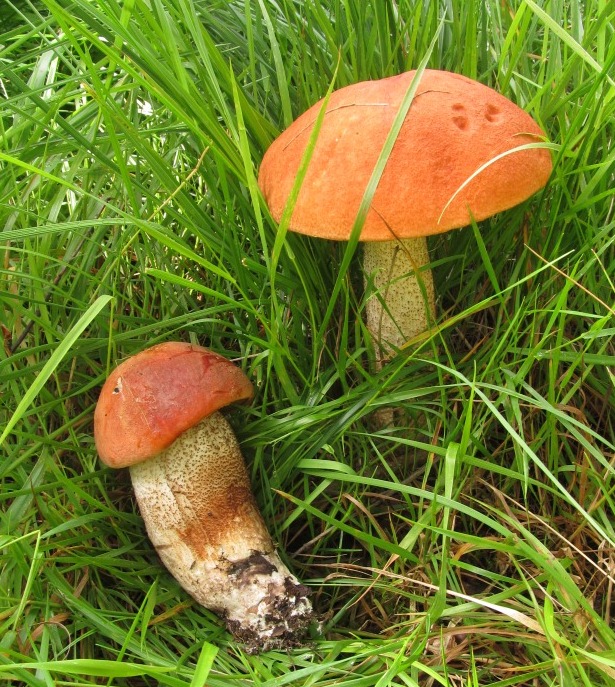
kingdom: Fungi
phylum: Basidiomycota
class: Agaricomycetes
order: Boletales
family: Boletaceae
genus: Leccinum
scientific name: Leccinum aurantiacum
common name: rustrød skælrørhat
